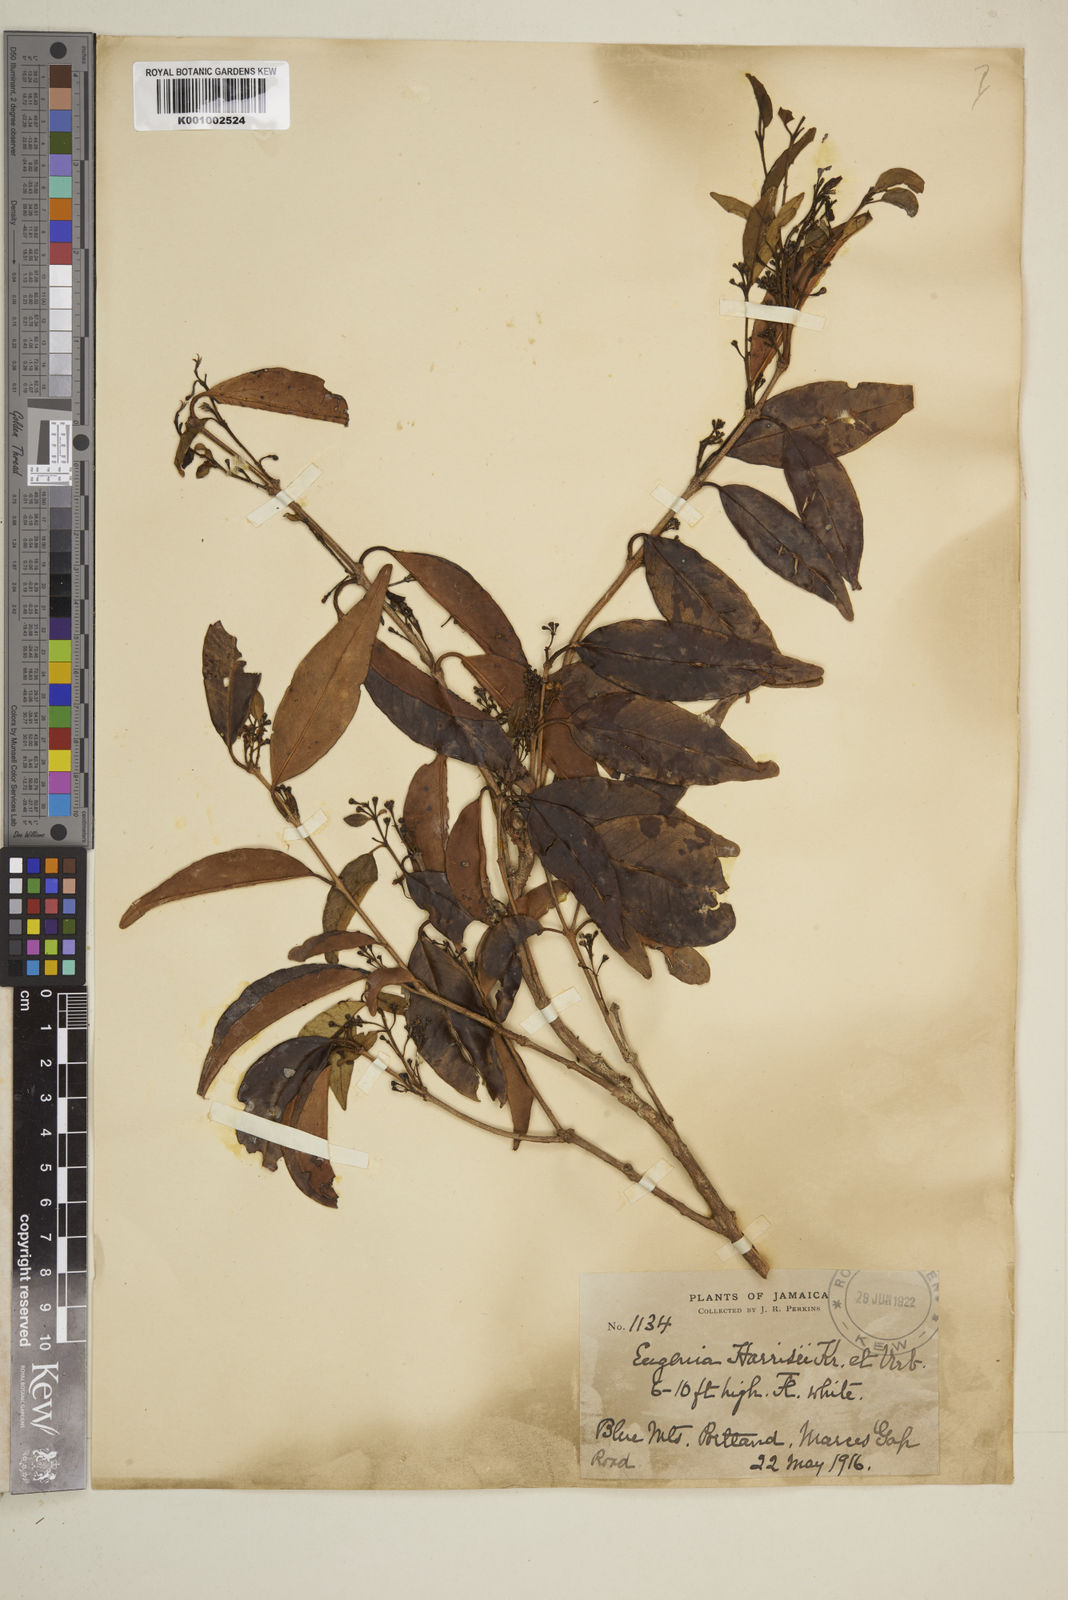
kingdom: Plantae
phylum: Tracheophyta
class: Magnoliopsida
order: Myrtales
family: Myrtaceae
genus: Eugenia
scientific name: Eugenia harrisii
